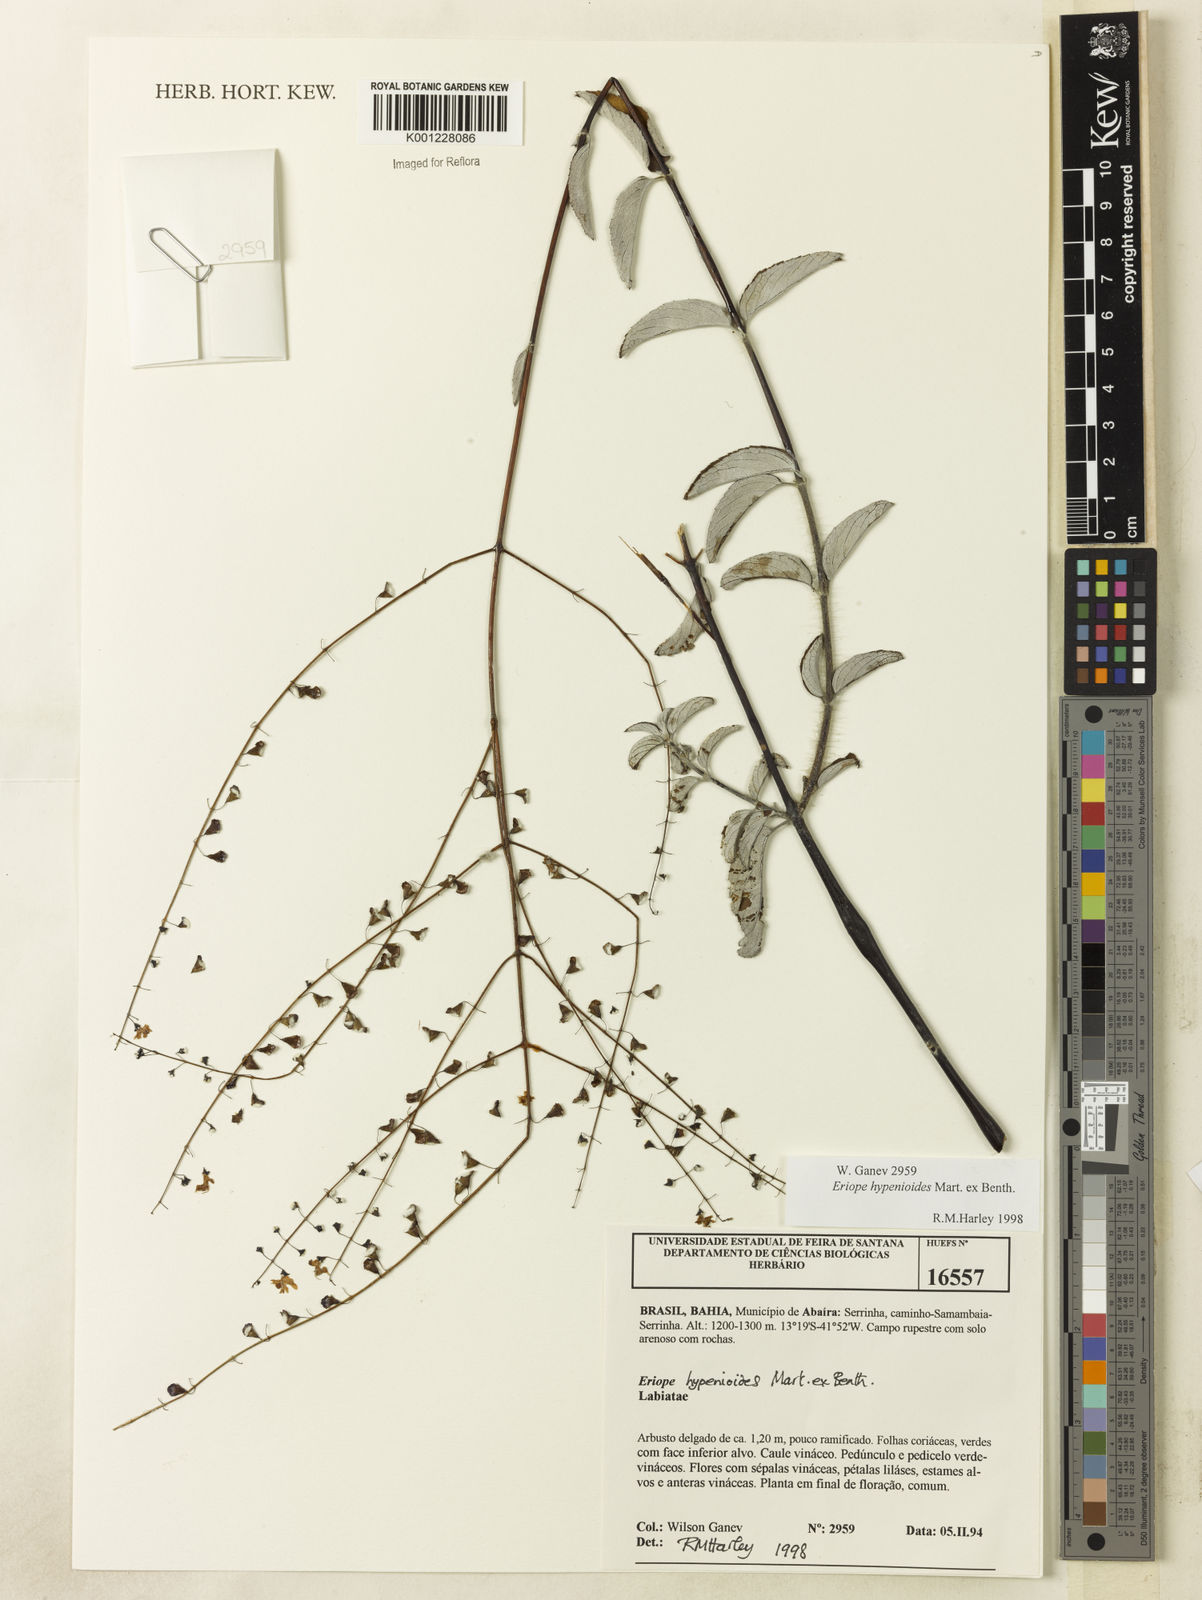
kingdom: Plantae
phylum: Tracheophyta
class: Magnoliopsida
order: Lamiales
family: Lamiaceae
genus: Eriope
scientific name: Eriope hypenioides
